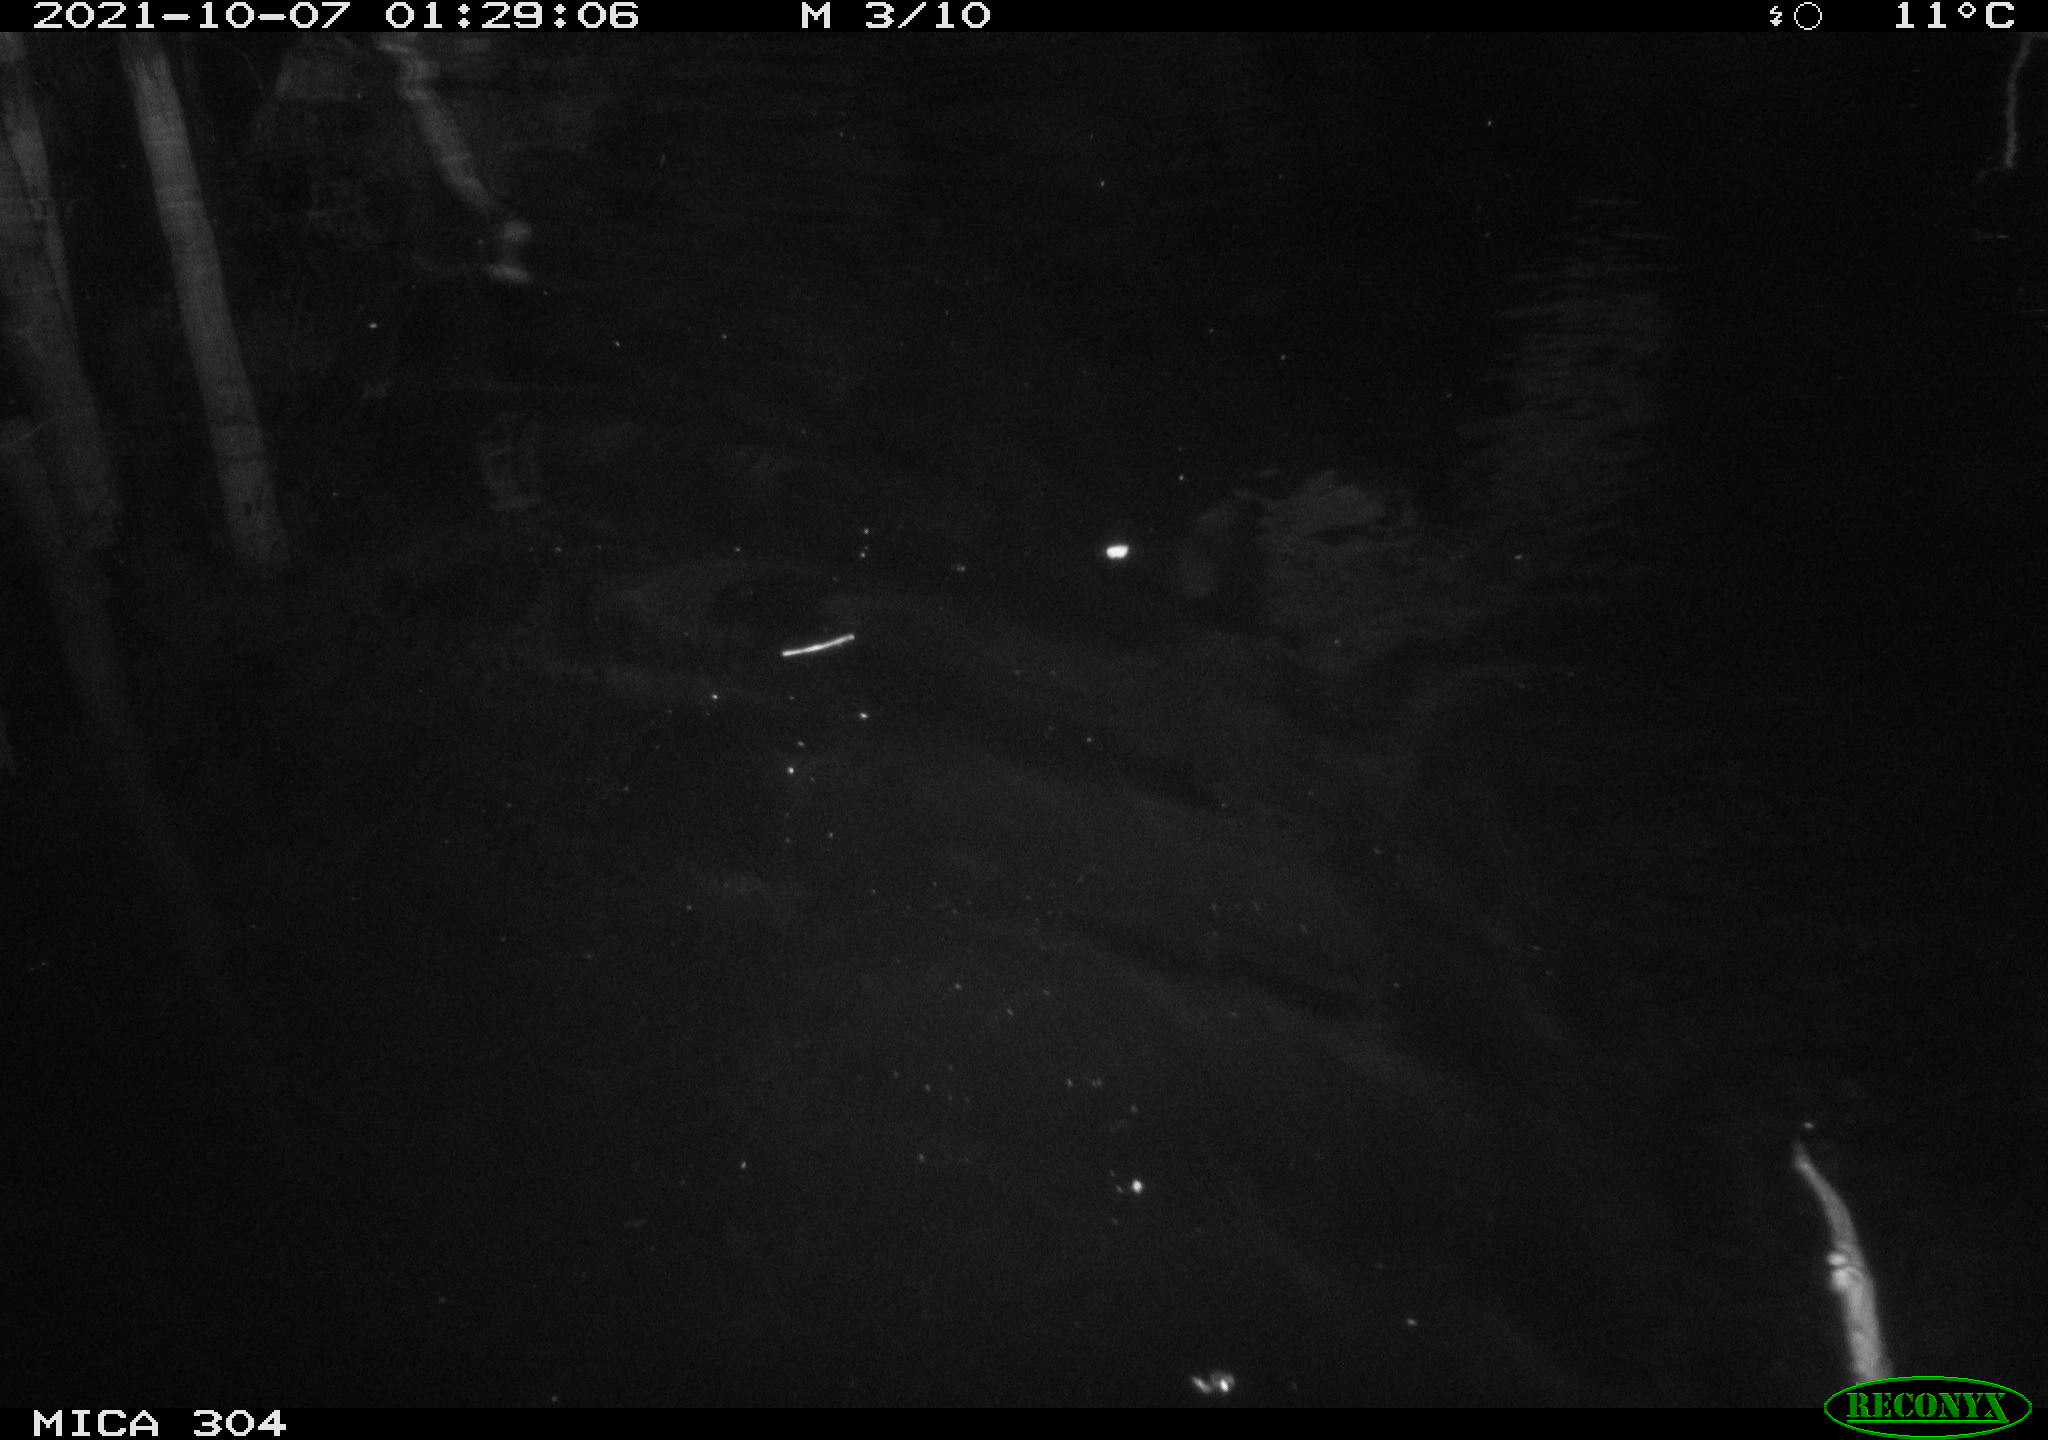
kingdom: Animalia
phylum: Chordata
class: Mammalia
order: Rodentia
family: Cricetidae
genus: Ondatra
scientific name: Ondatra zibethicus
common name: Muskrat
